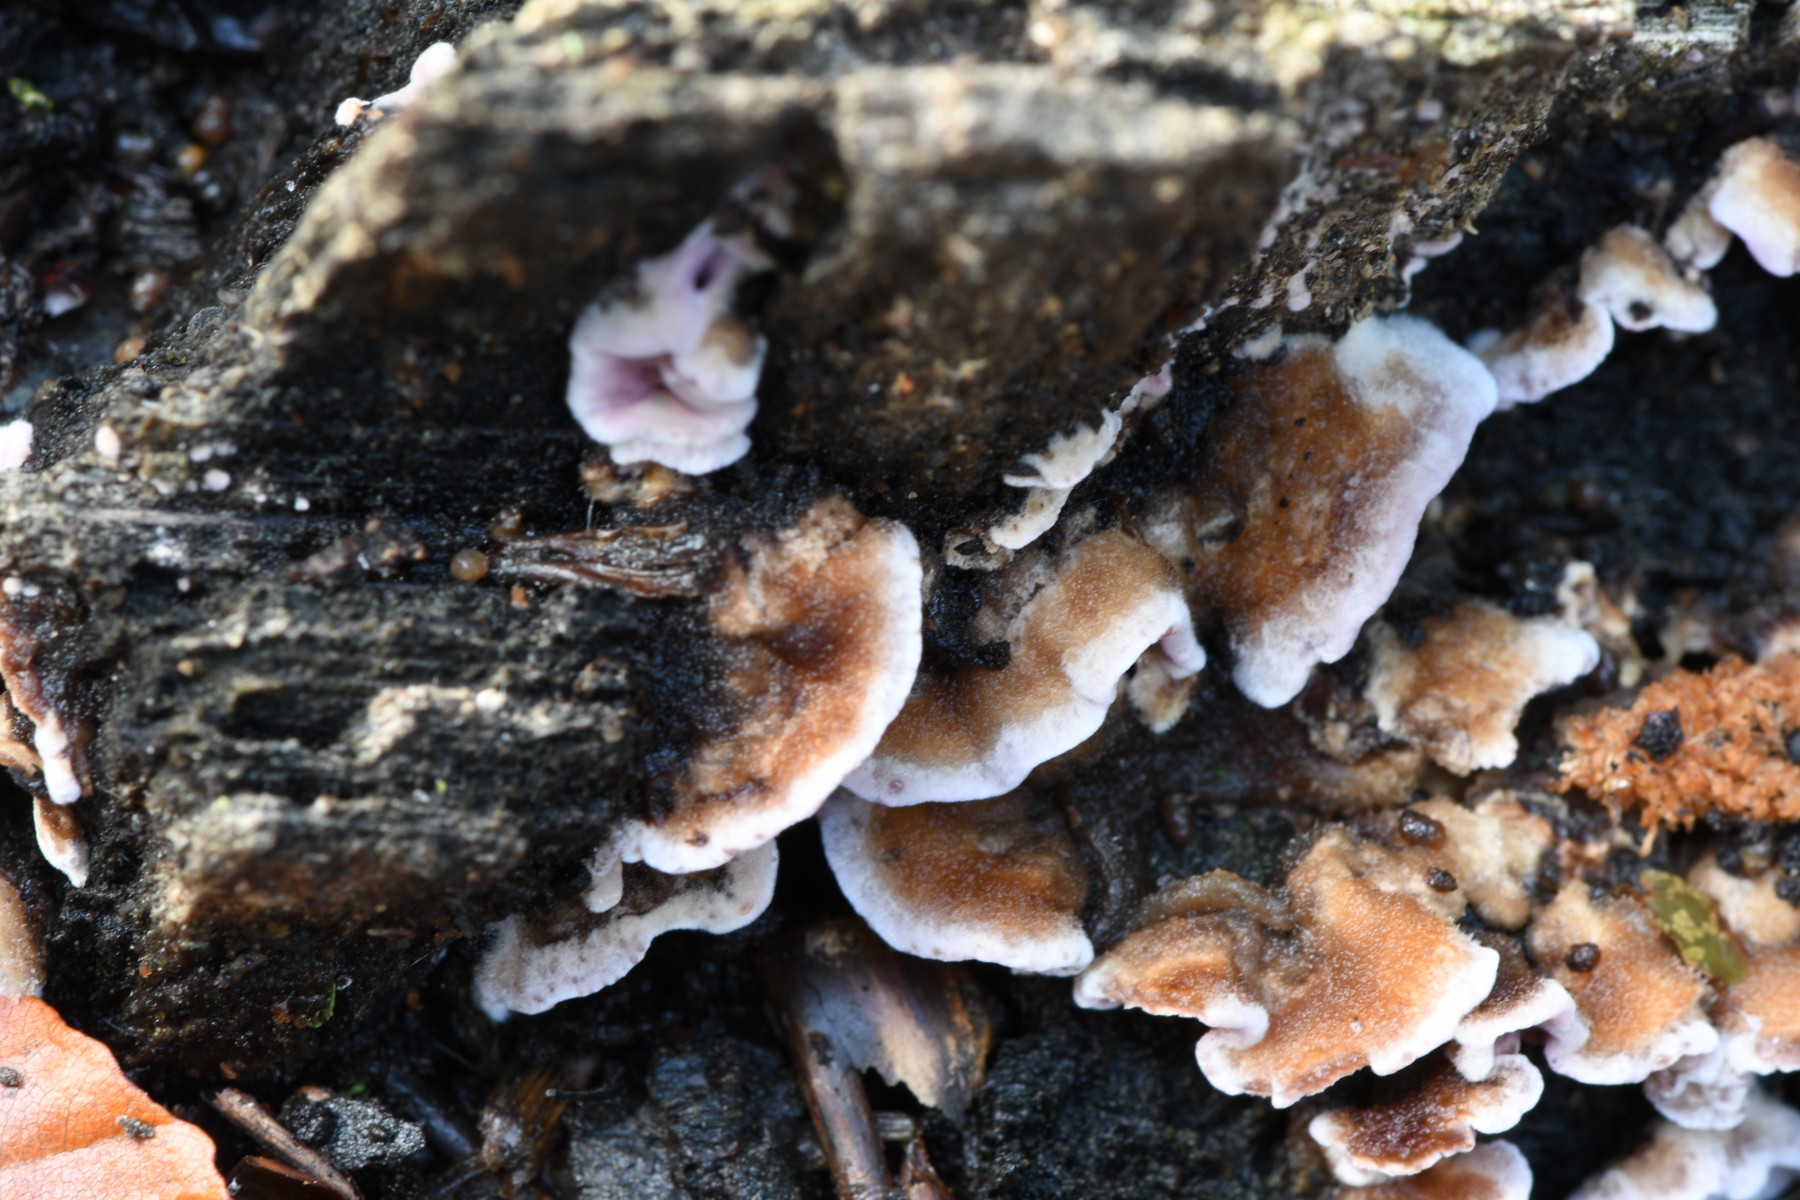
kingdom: Fungi
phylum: Basidiomycota
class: Agaricomycetes
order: Agaricales
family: Cyphellaceae
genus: Chondrostereum
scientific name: Chondrostereum purpureum
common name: purpurlædersvamp
